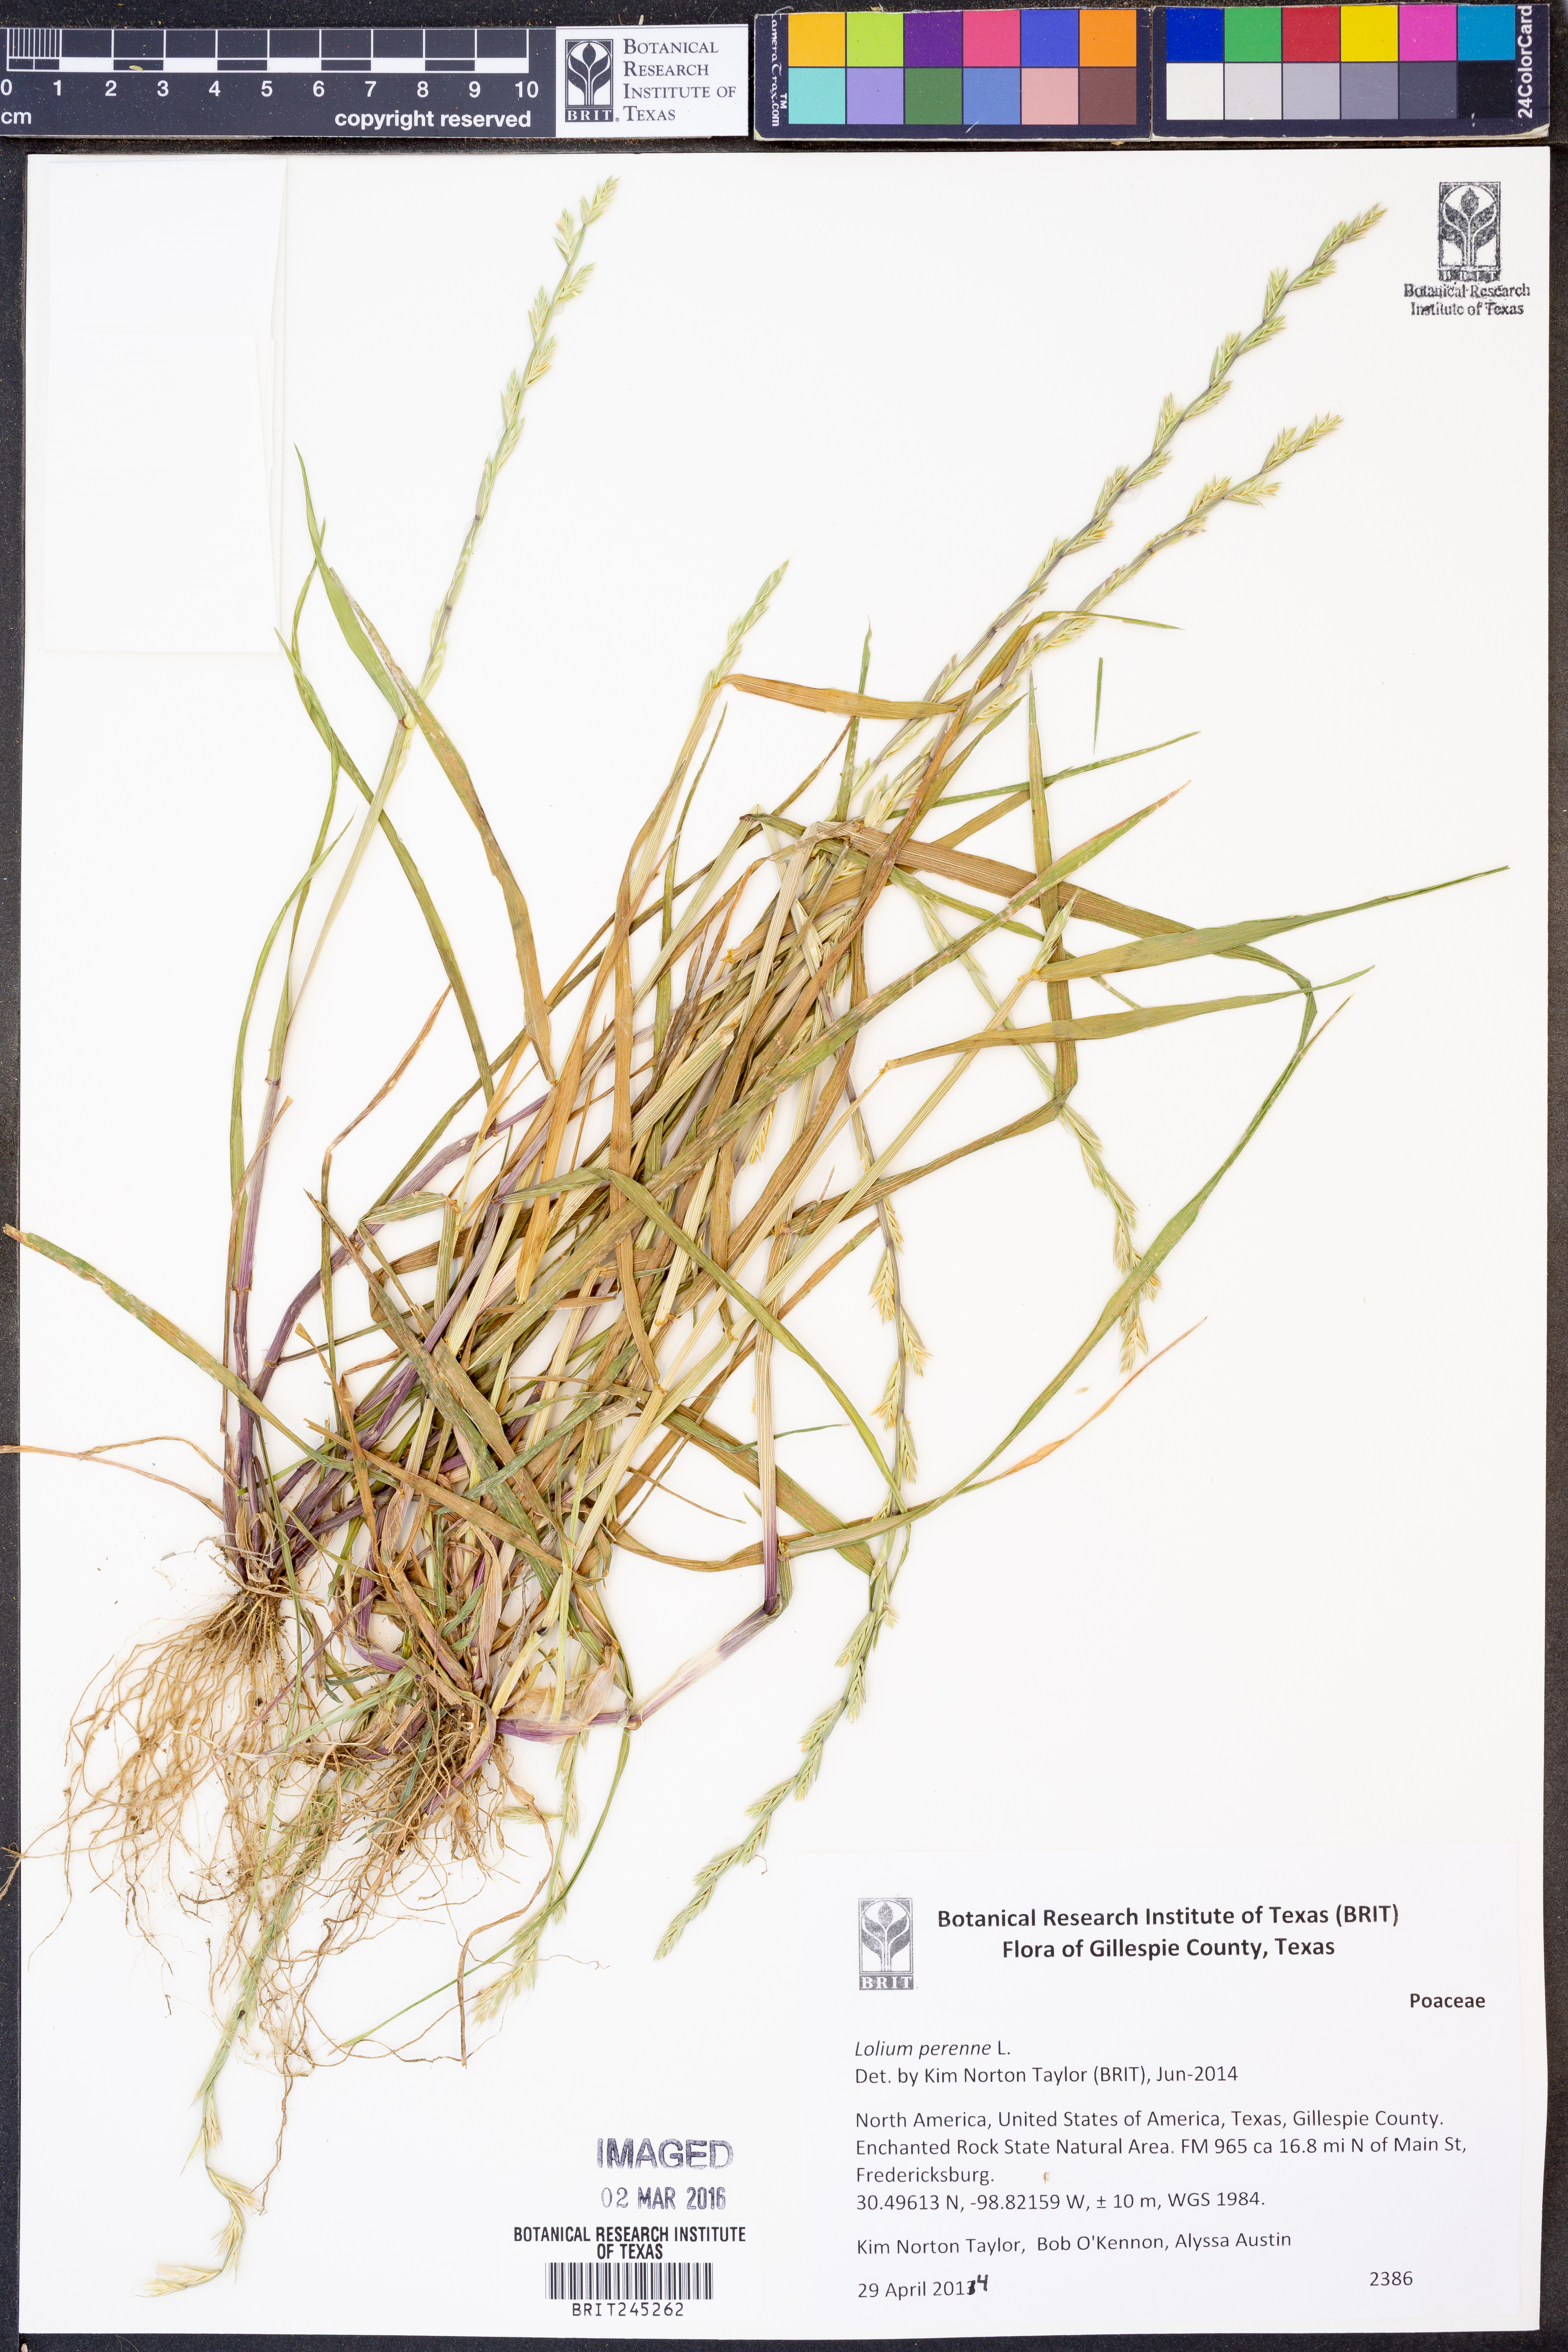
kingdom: Plantae
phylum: Tracheophyta
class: Liliopsida
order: Poales
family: Poaceae
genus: Lolium
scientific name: Lolium perenne
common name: Perennial ryegrass
